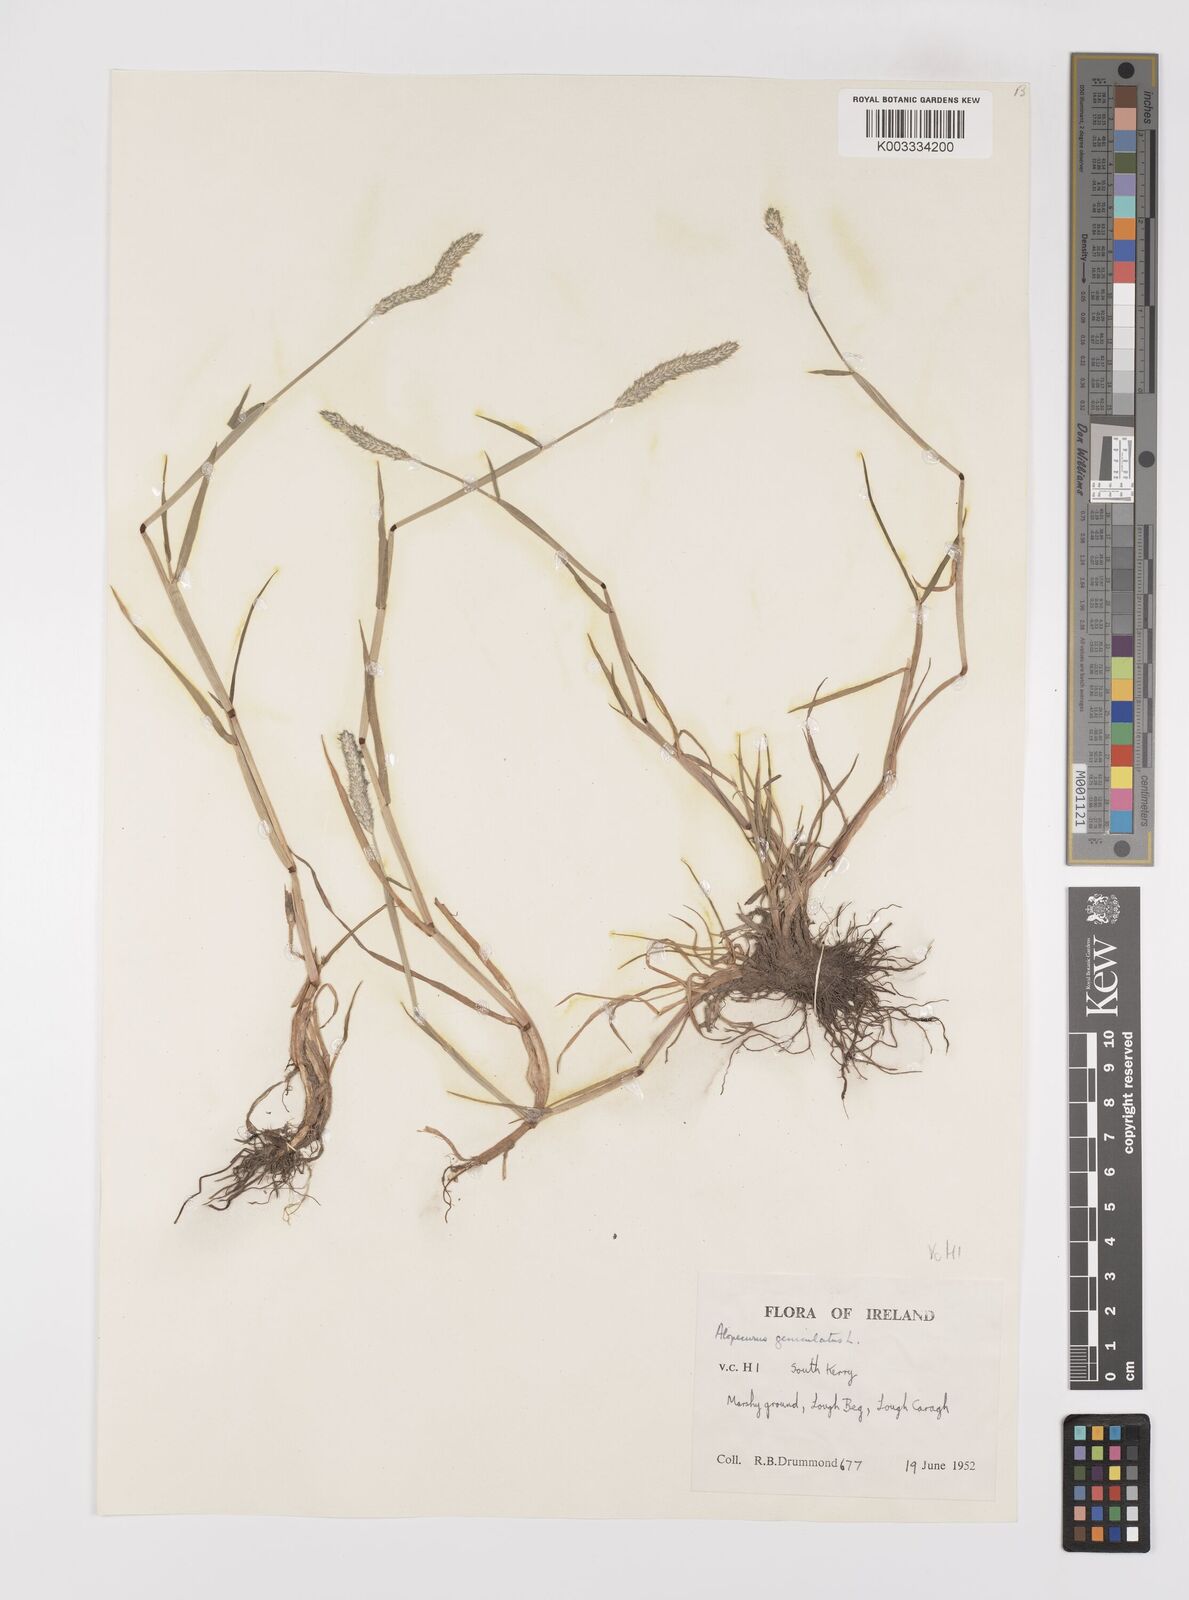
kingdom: Plantae
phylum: Tracheophyta
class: Liliopsida
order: Poales
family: Poaceae
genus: Alopecurus
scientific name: Alopecurus geniculatus
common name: Water foxtail
